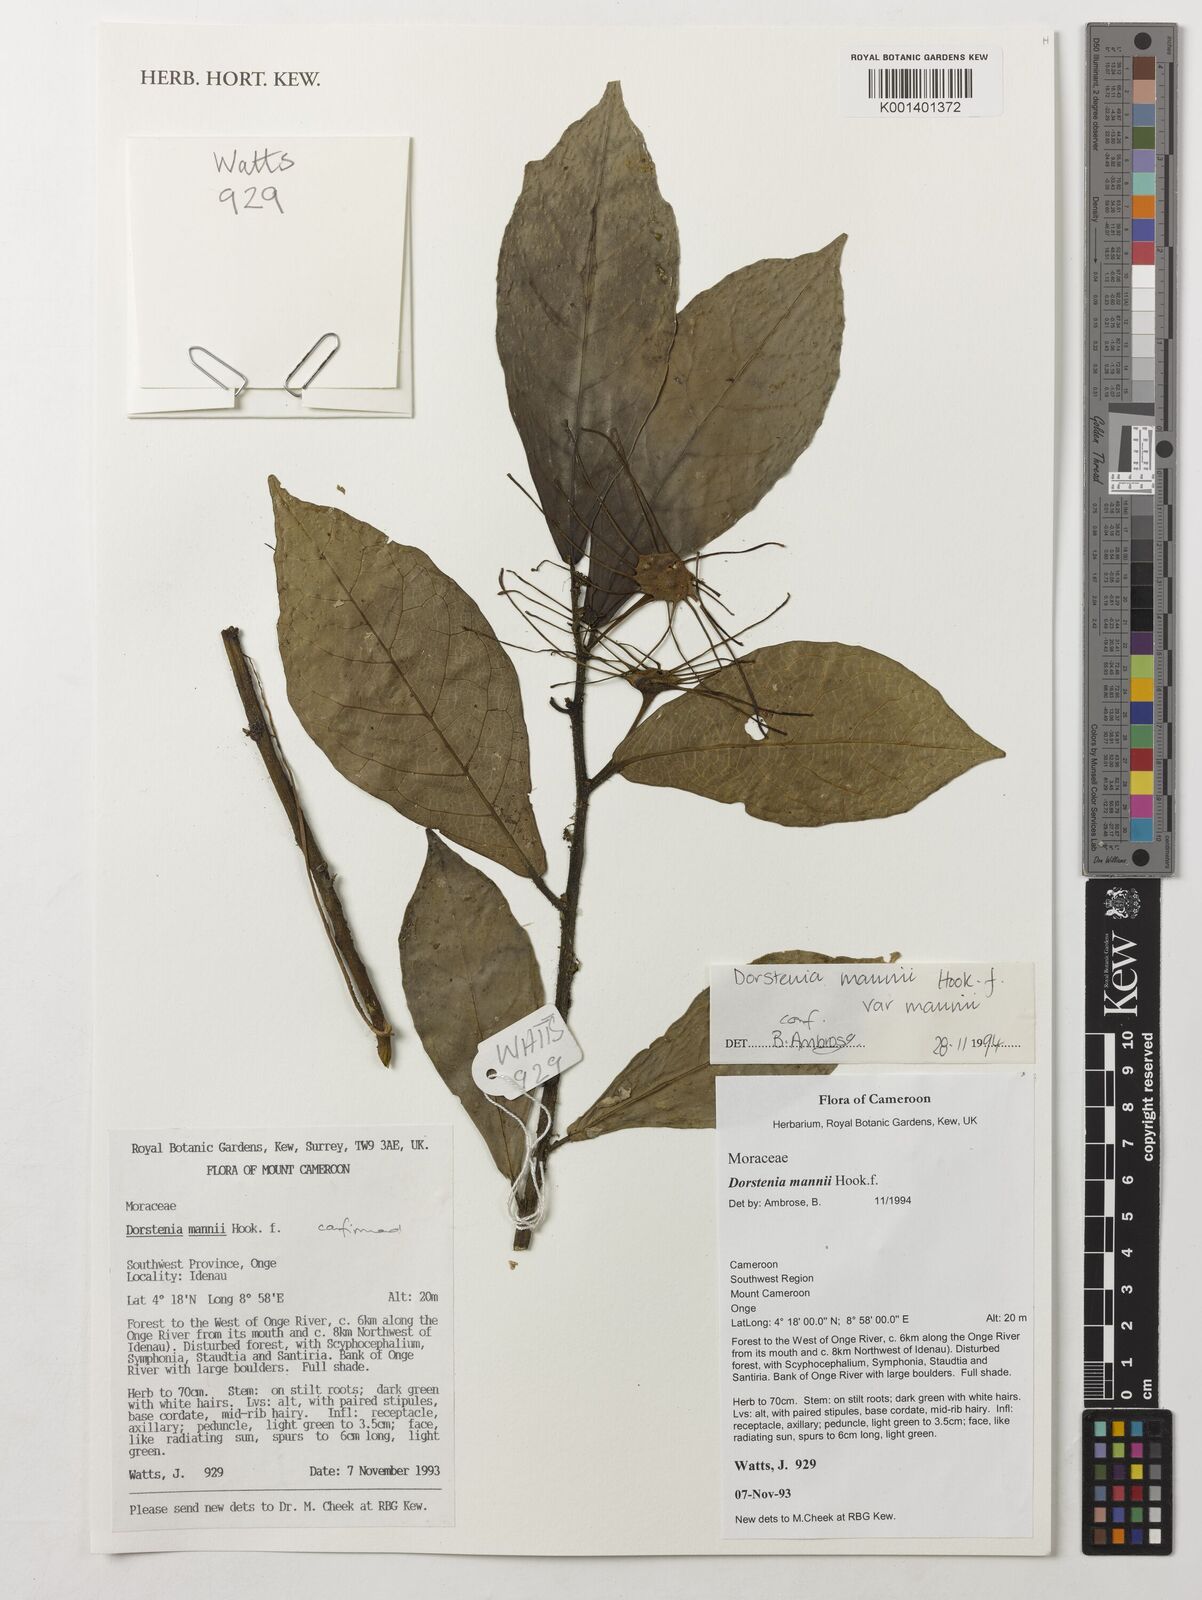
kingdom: Plantae
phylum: Tracheophyta
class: Magnoliopsida
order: Rosales
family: Moraceae
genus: Dorstenia
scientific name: Dorstenia mannii
